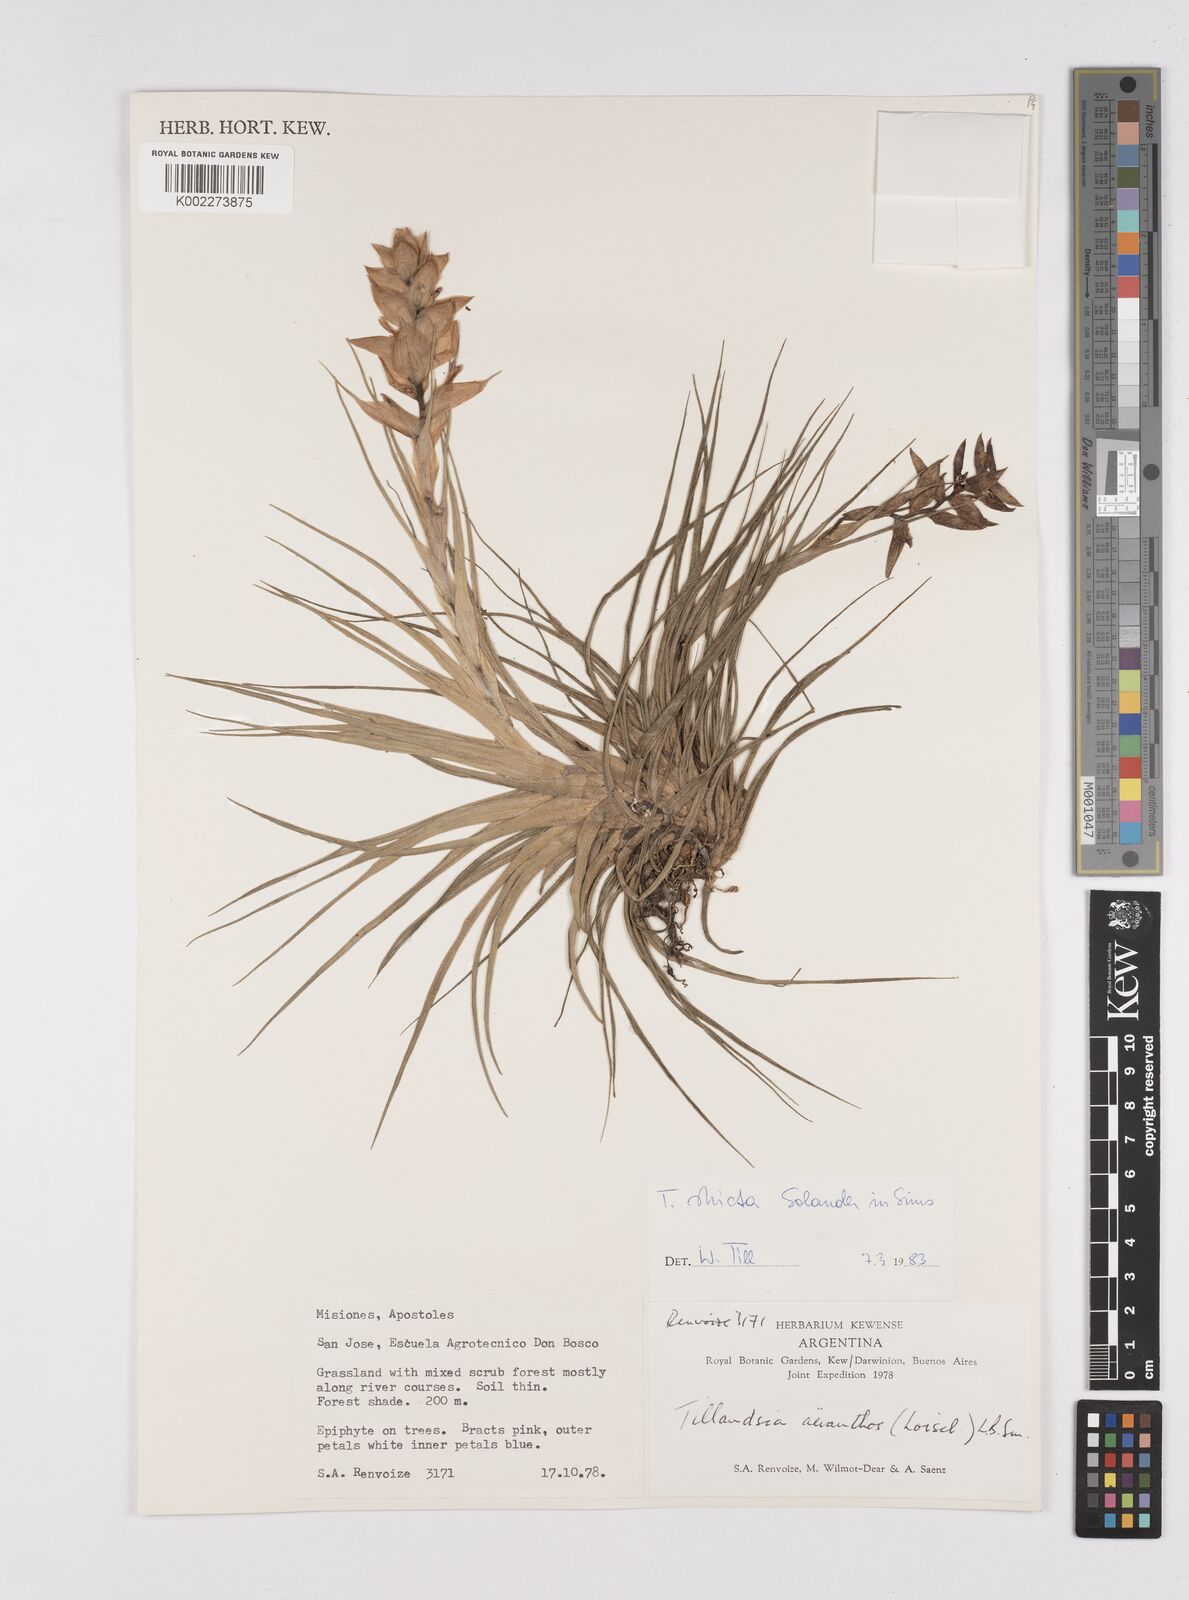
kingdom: Plantae
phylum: Tracheophyta
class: Liliopsida
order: Poales
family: Bromeliaceae
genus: Tillandsia
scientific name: Tillandsia stricta
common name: Airplant
